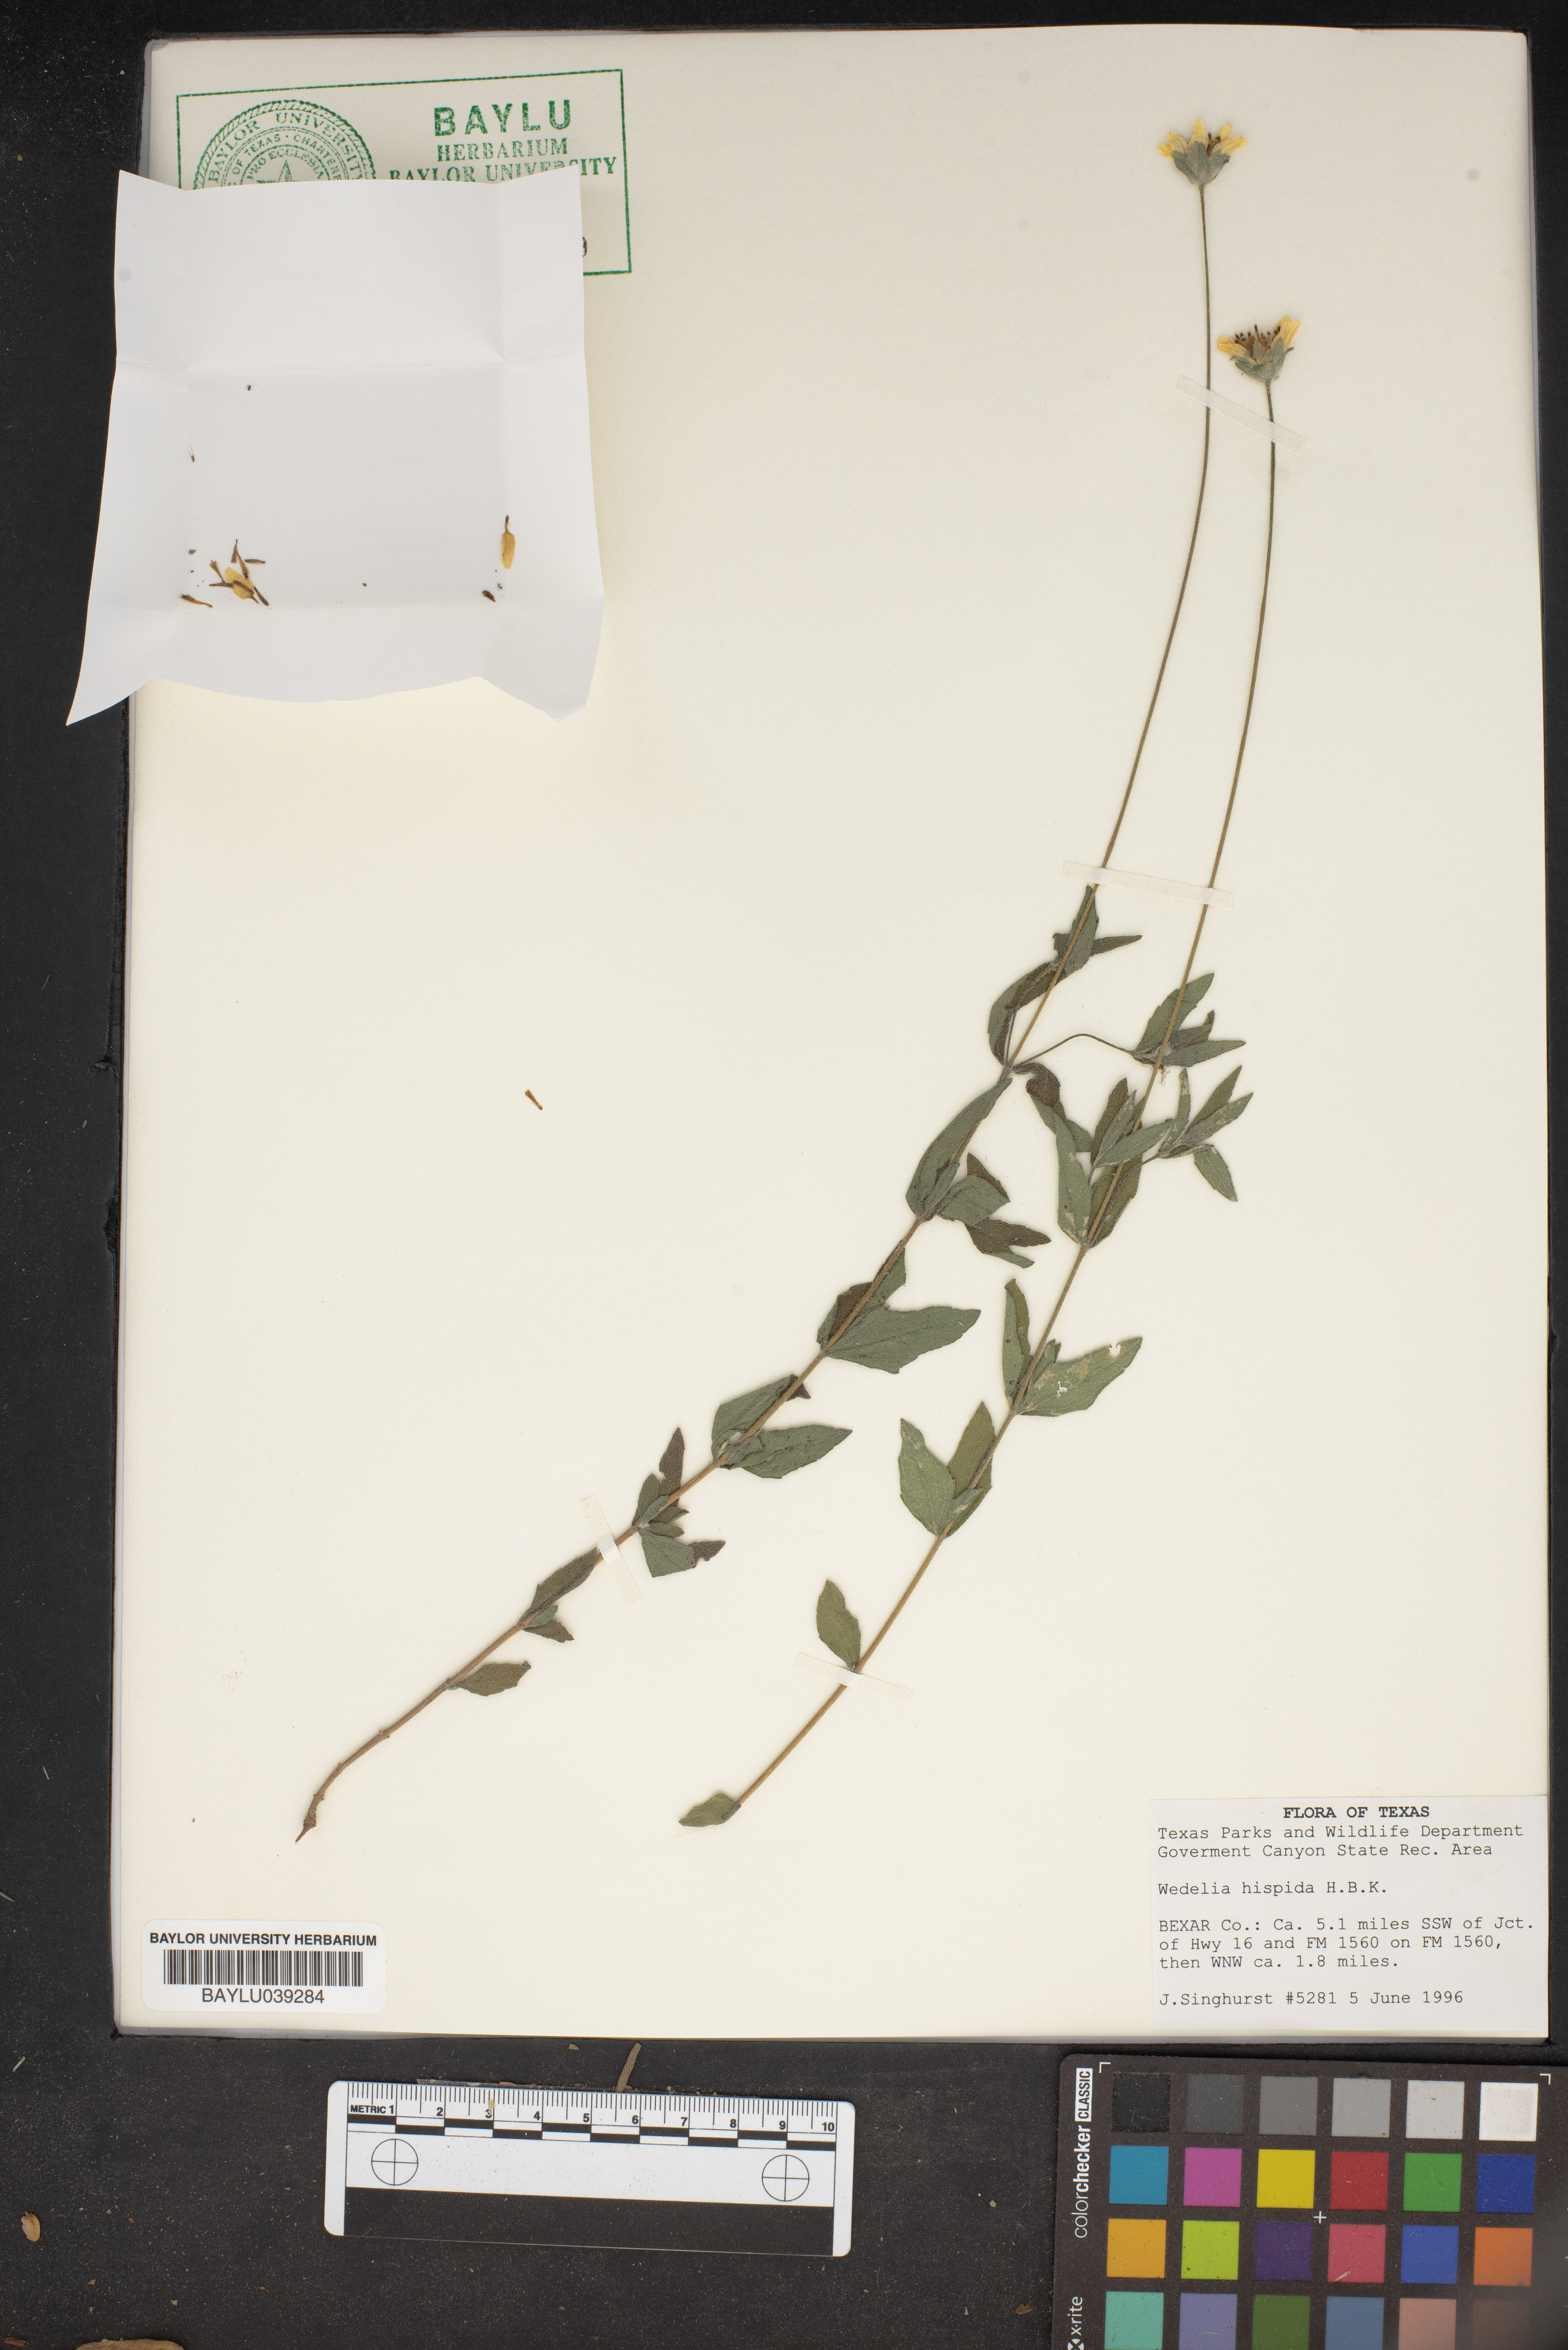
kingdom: Plantae
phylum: Tracheophyta
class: Magnoliopsida
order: Asterales
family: Asteraceae
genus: Wedelia
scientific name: Wedelia acapulcensis
